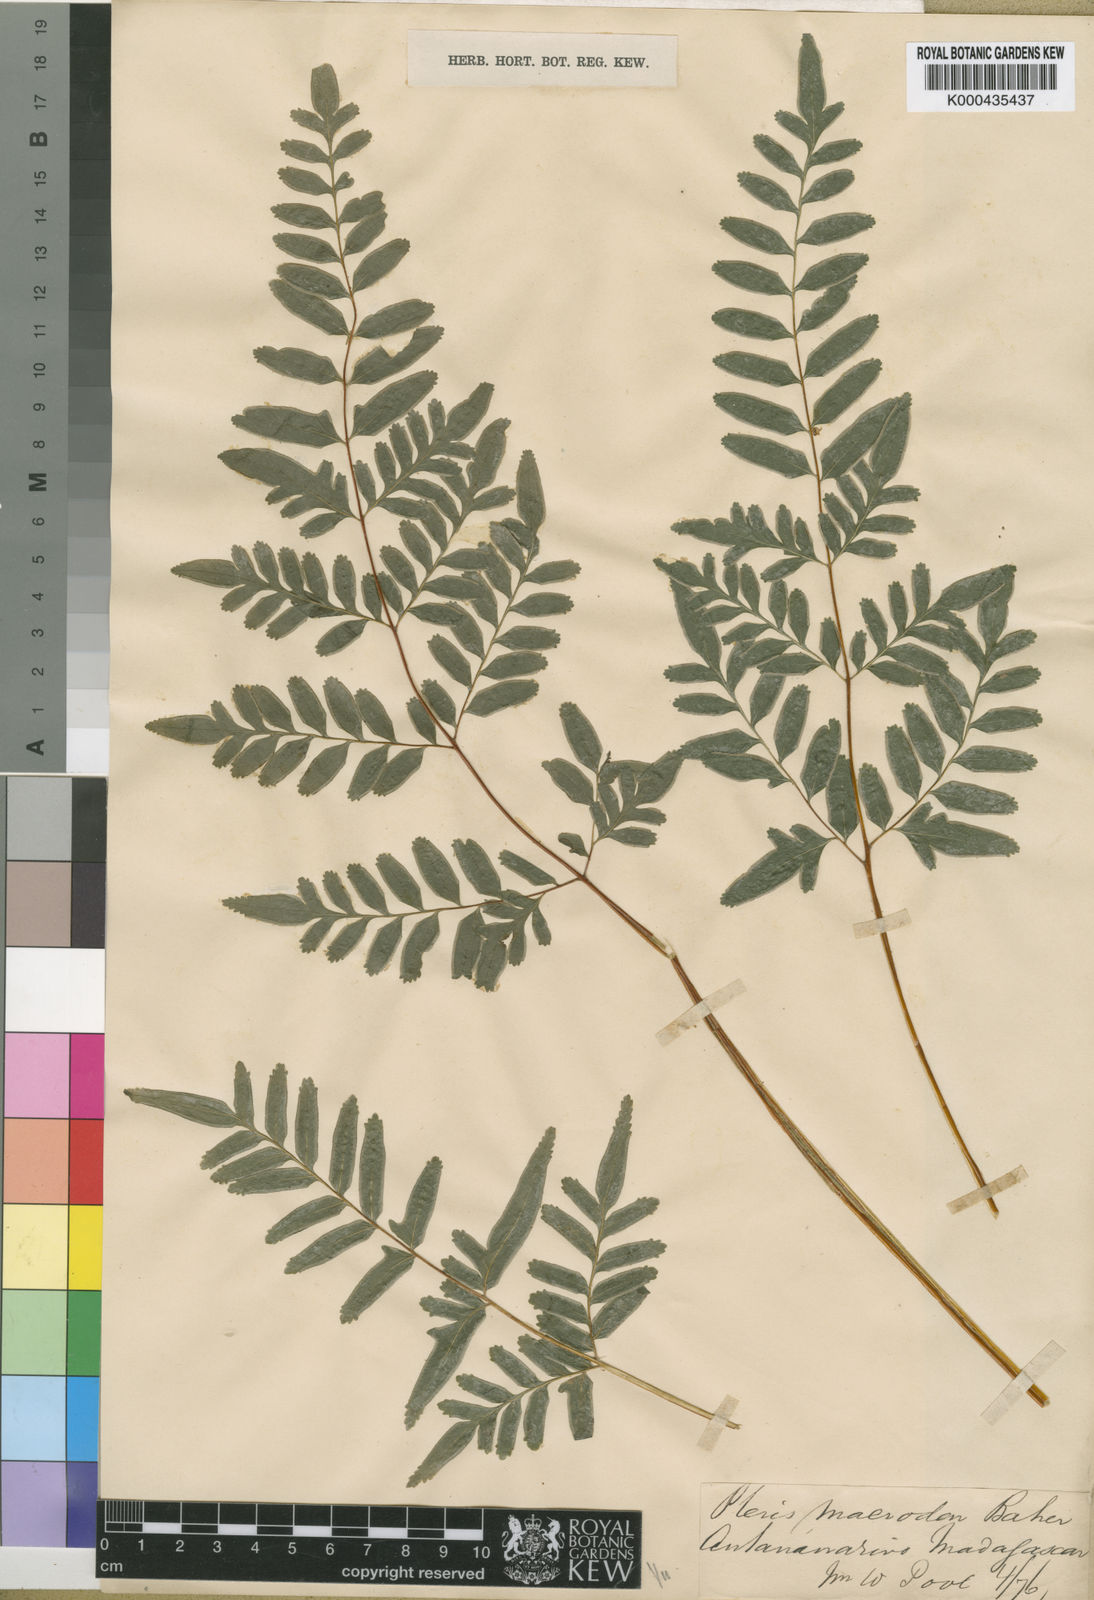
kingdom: Plantae
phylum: Tracheophyta
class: Polypodiopsida
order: Polypodiales
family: Pteridaceae
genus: Pteris
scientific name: Pteris macrodon
